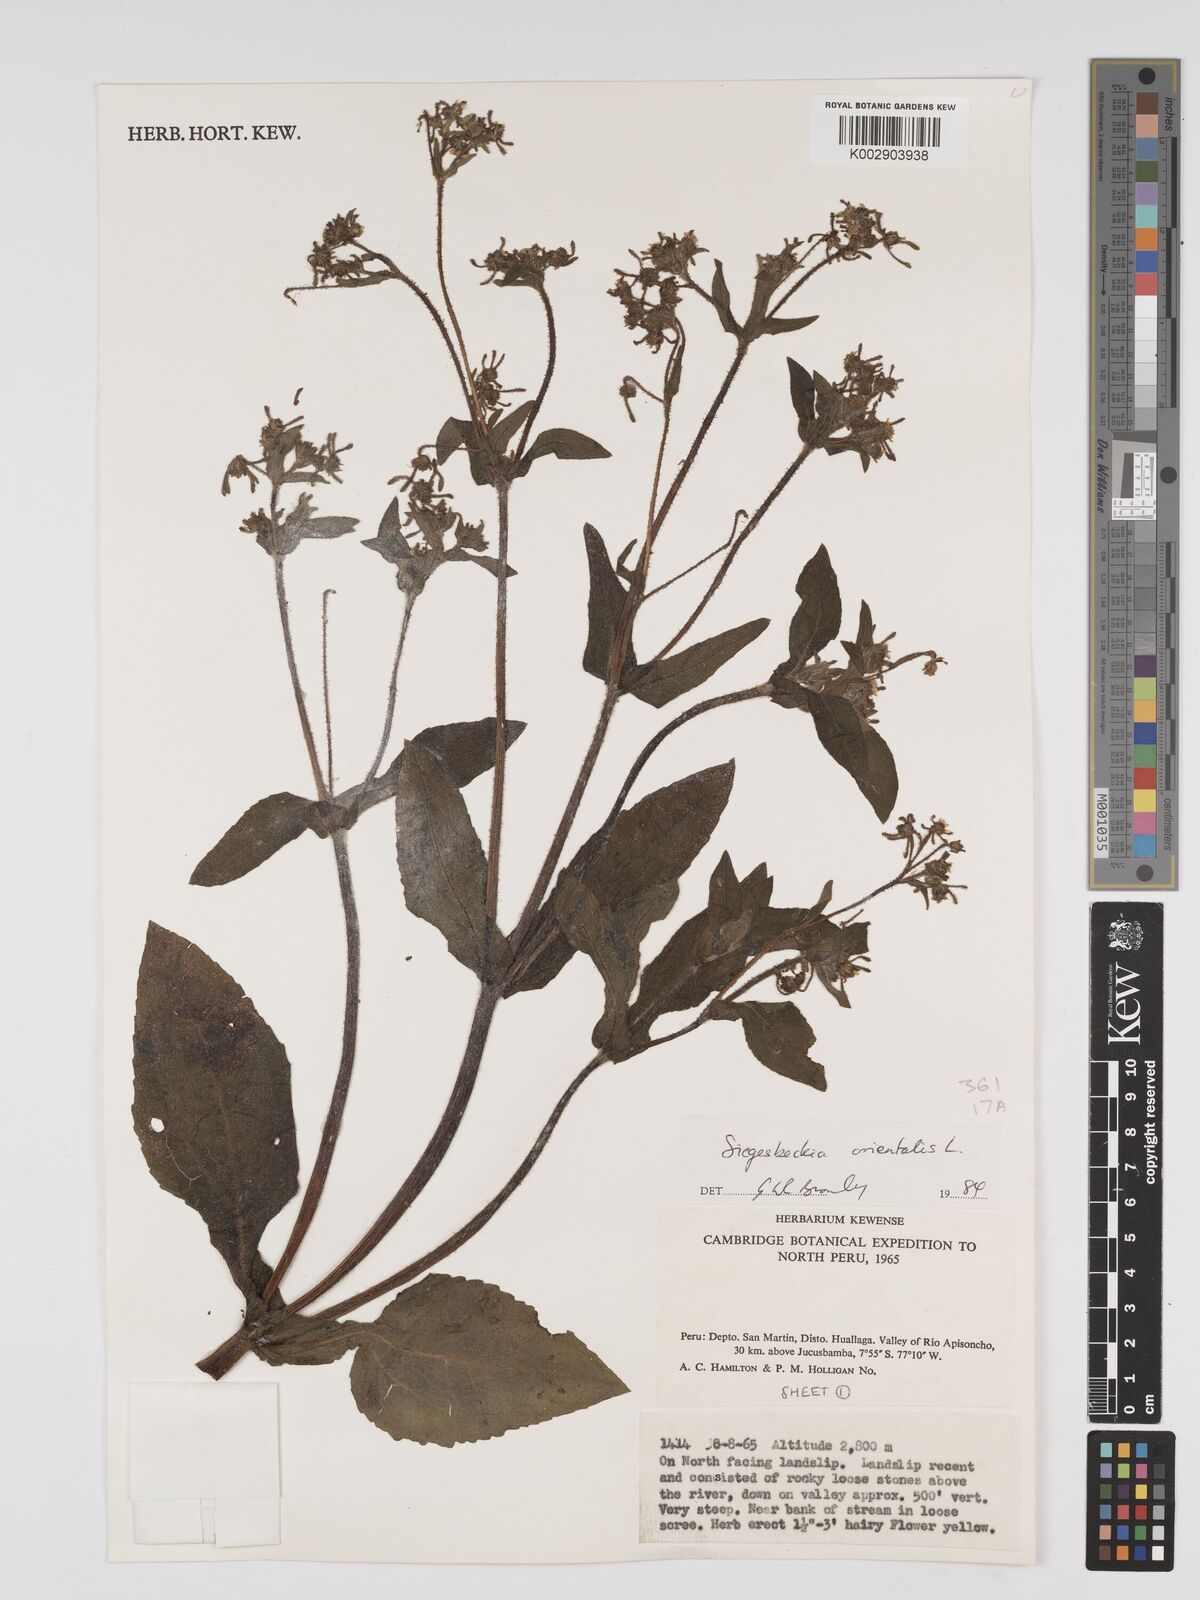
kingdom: Plantae
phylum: Tracheophyta
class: Magnoliopsida
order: Asterales
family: Asteraceae
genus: Sigesbeckia
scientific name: Sigesbeckia orientalis
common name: Eastern st paul's-wort
